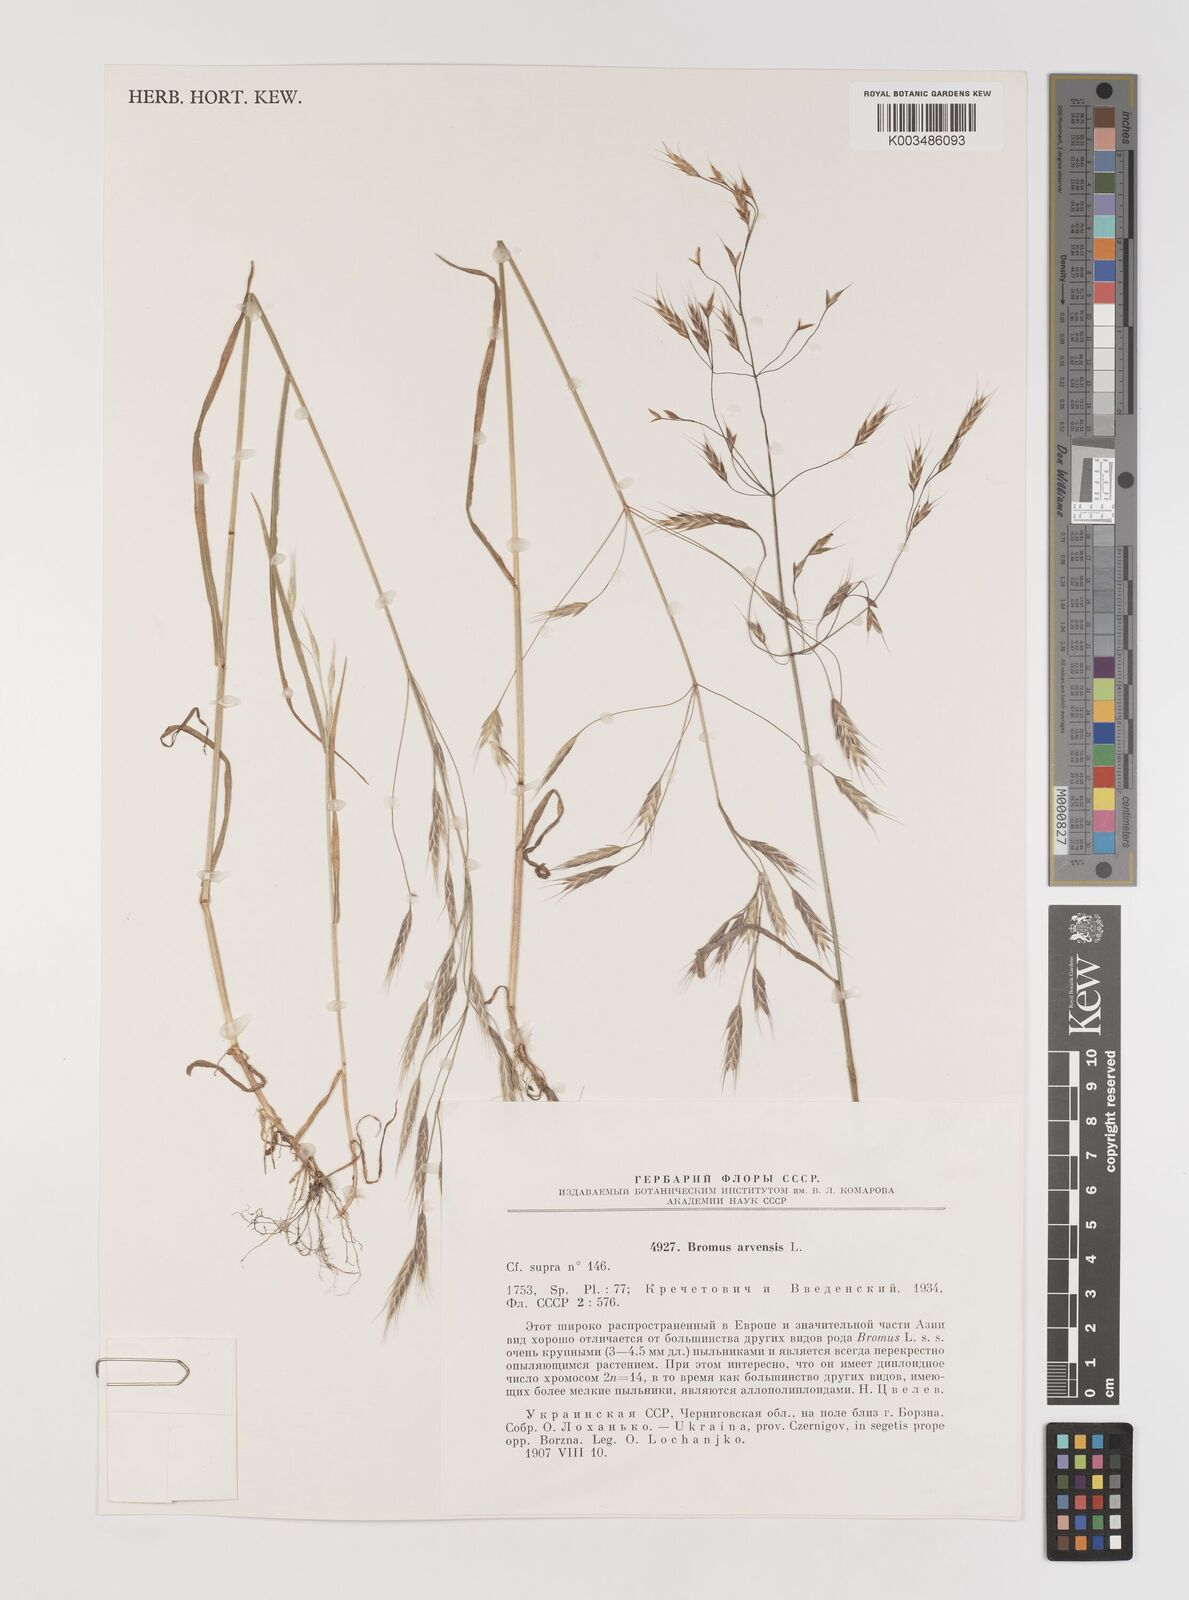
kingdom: Plantae
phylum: Tracheophyta
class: Liliopsida
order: Poales
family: Poaceae
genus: Bromus
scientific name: Bromus arvensis
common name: Field brome
